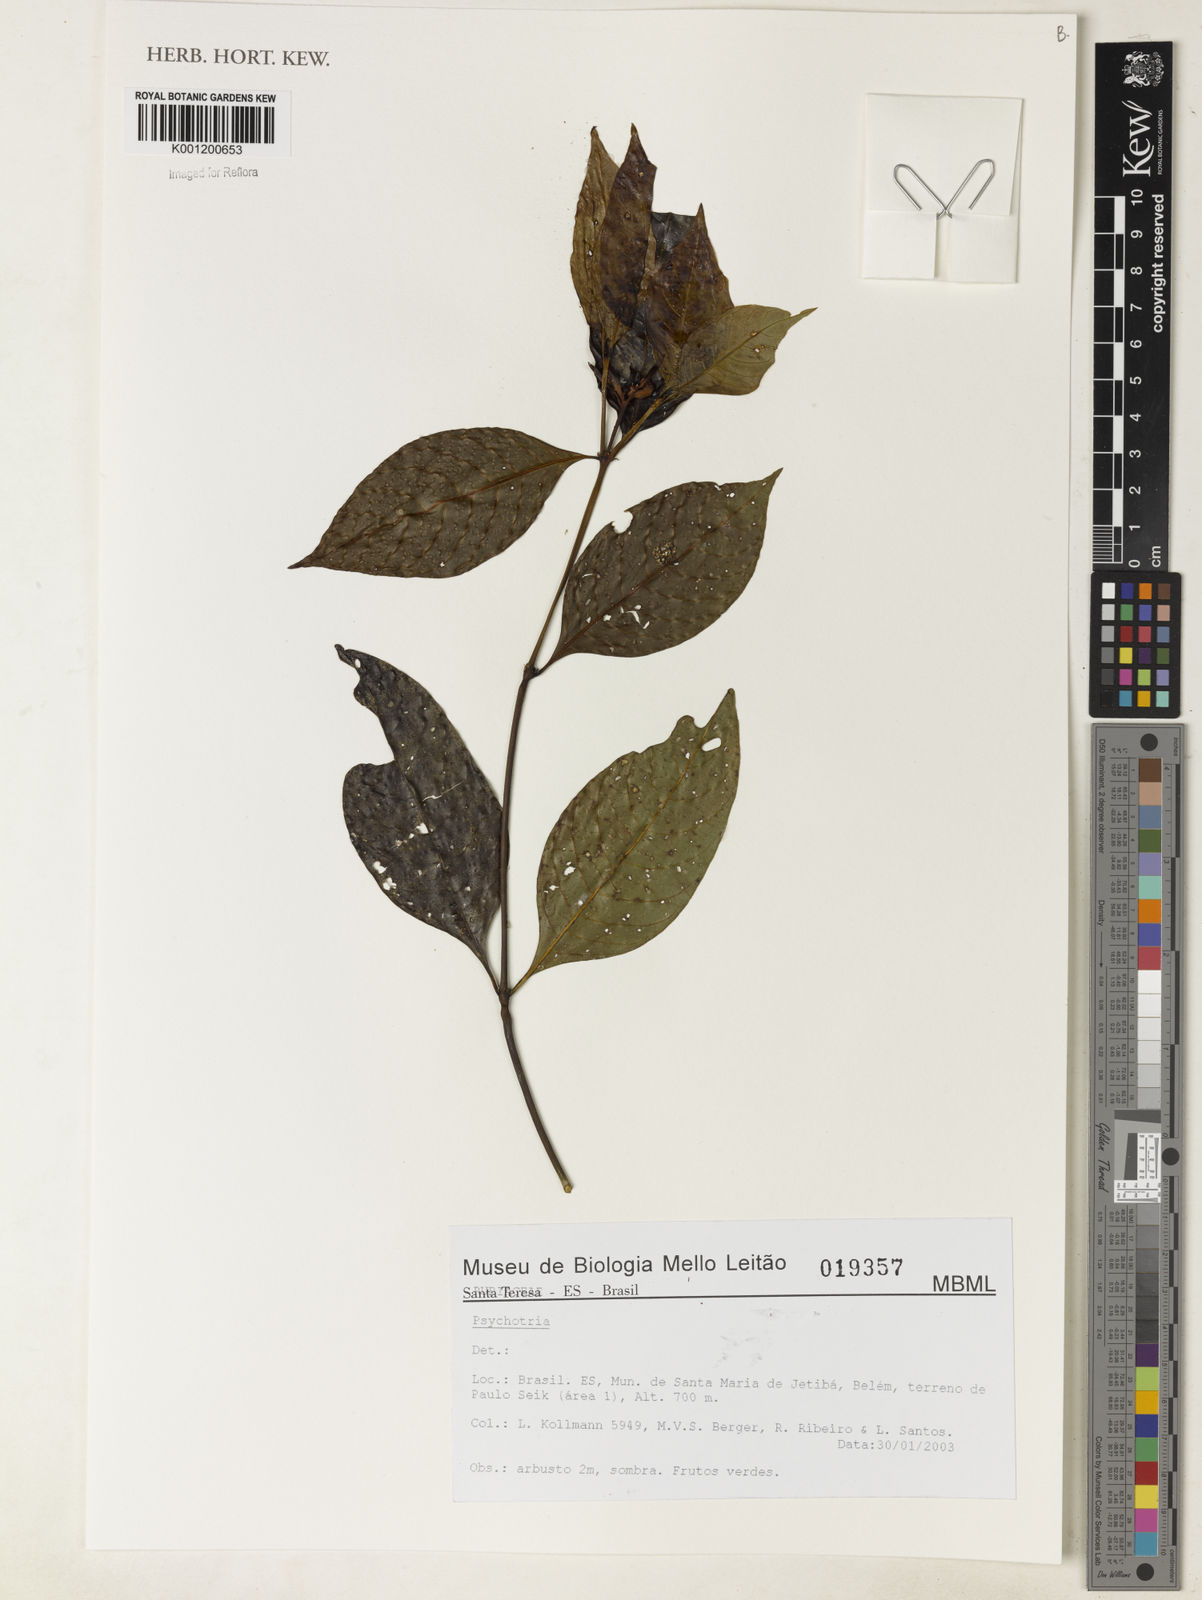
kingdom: Plantae
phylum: Tracheophyta
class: Magnoliopsida
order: Gentianales
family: Rubiaceae
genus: Psychotria
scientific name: Psychotria
